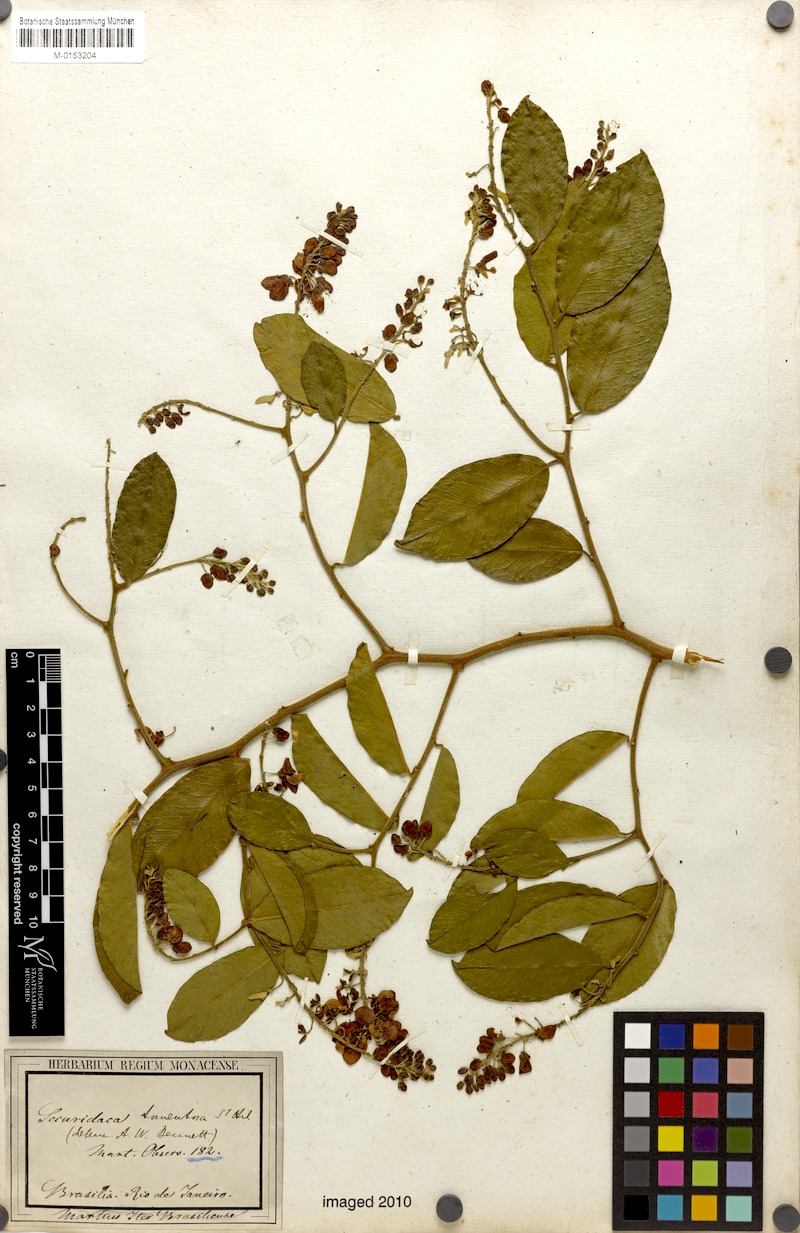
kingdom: Plantae
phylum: Tracheophyta
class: Magnoliopsida
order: Fabales
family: Polygalaceae
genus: Securidaca
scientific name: Securidaca tomentosa
